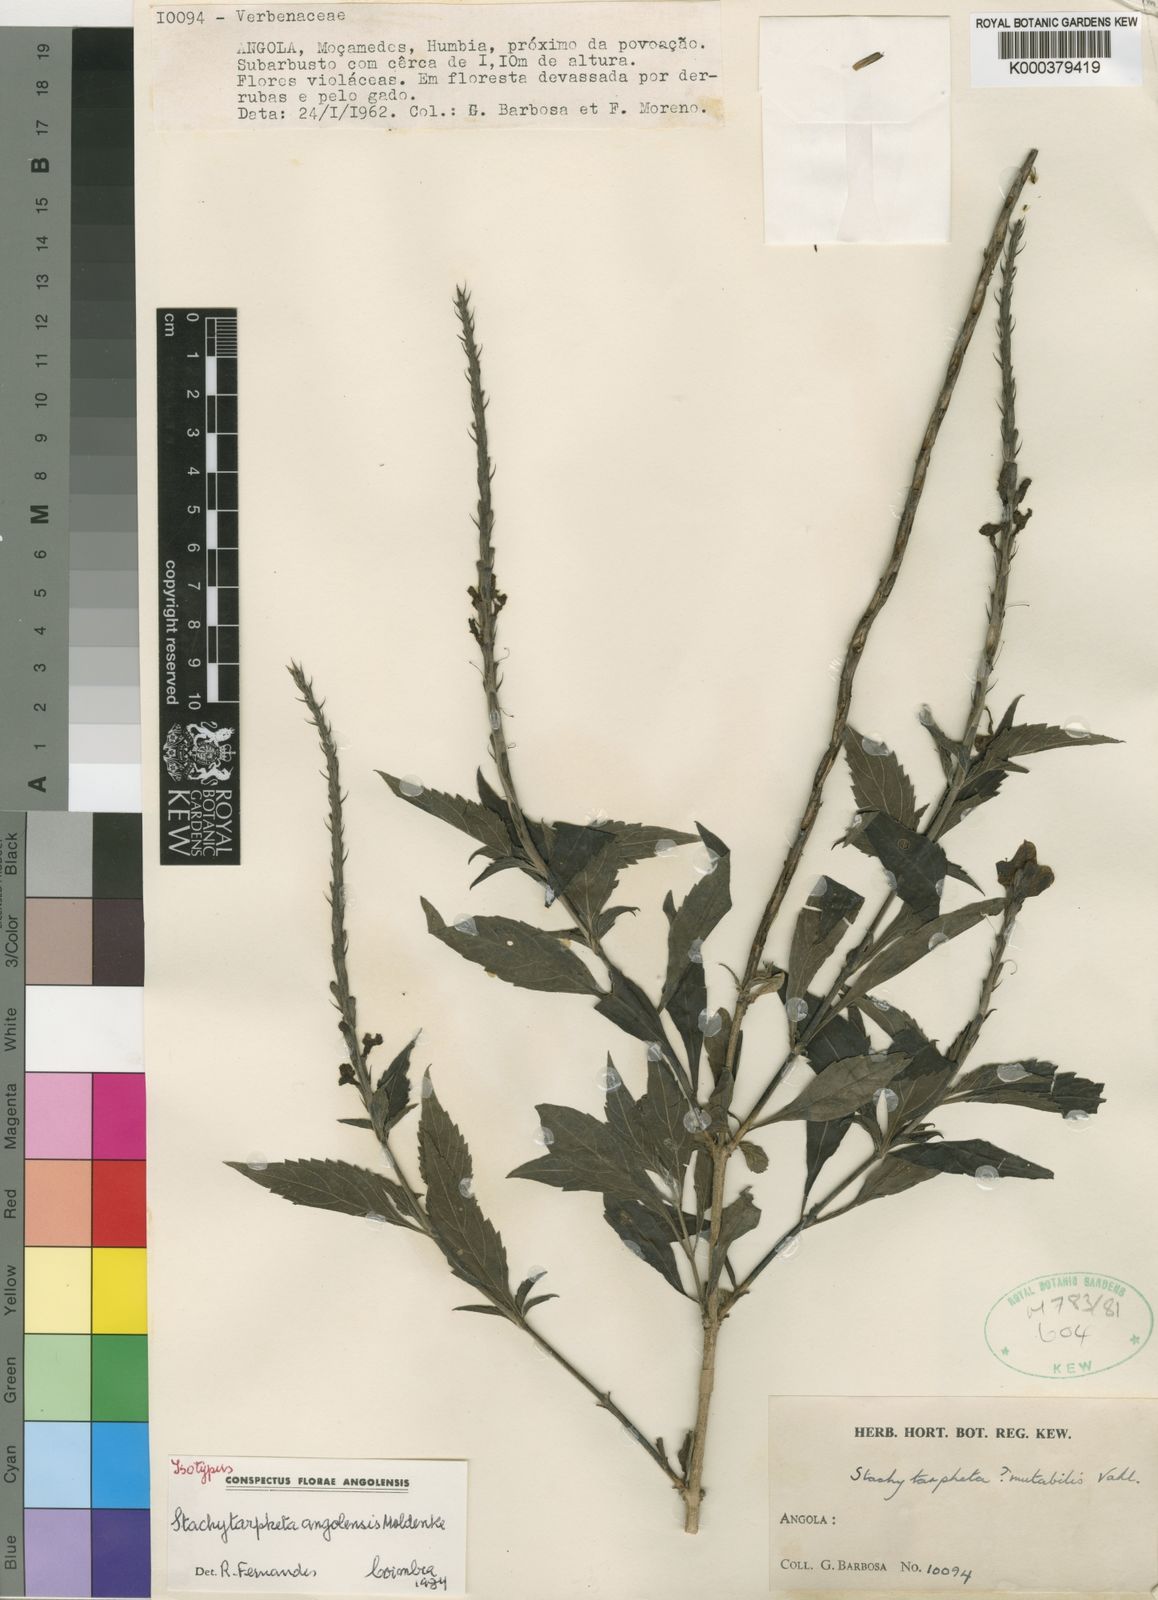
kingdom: Plantae
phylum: Tracheophyta
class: Magnoliopsida
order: Lamiales
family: Verbenaceae
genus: Stachytarpheta
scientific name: Stachytarpheta angolensis
